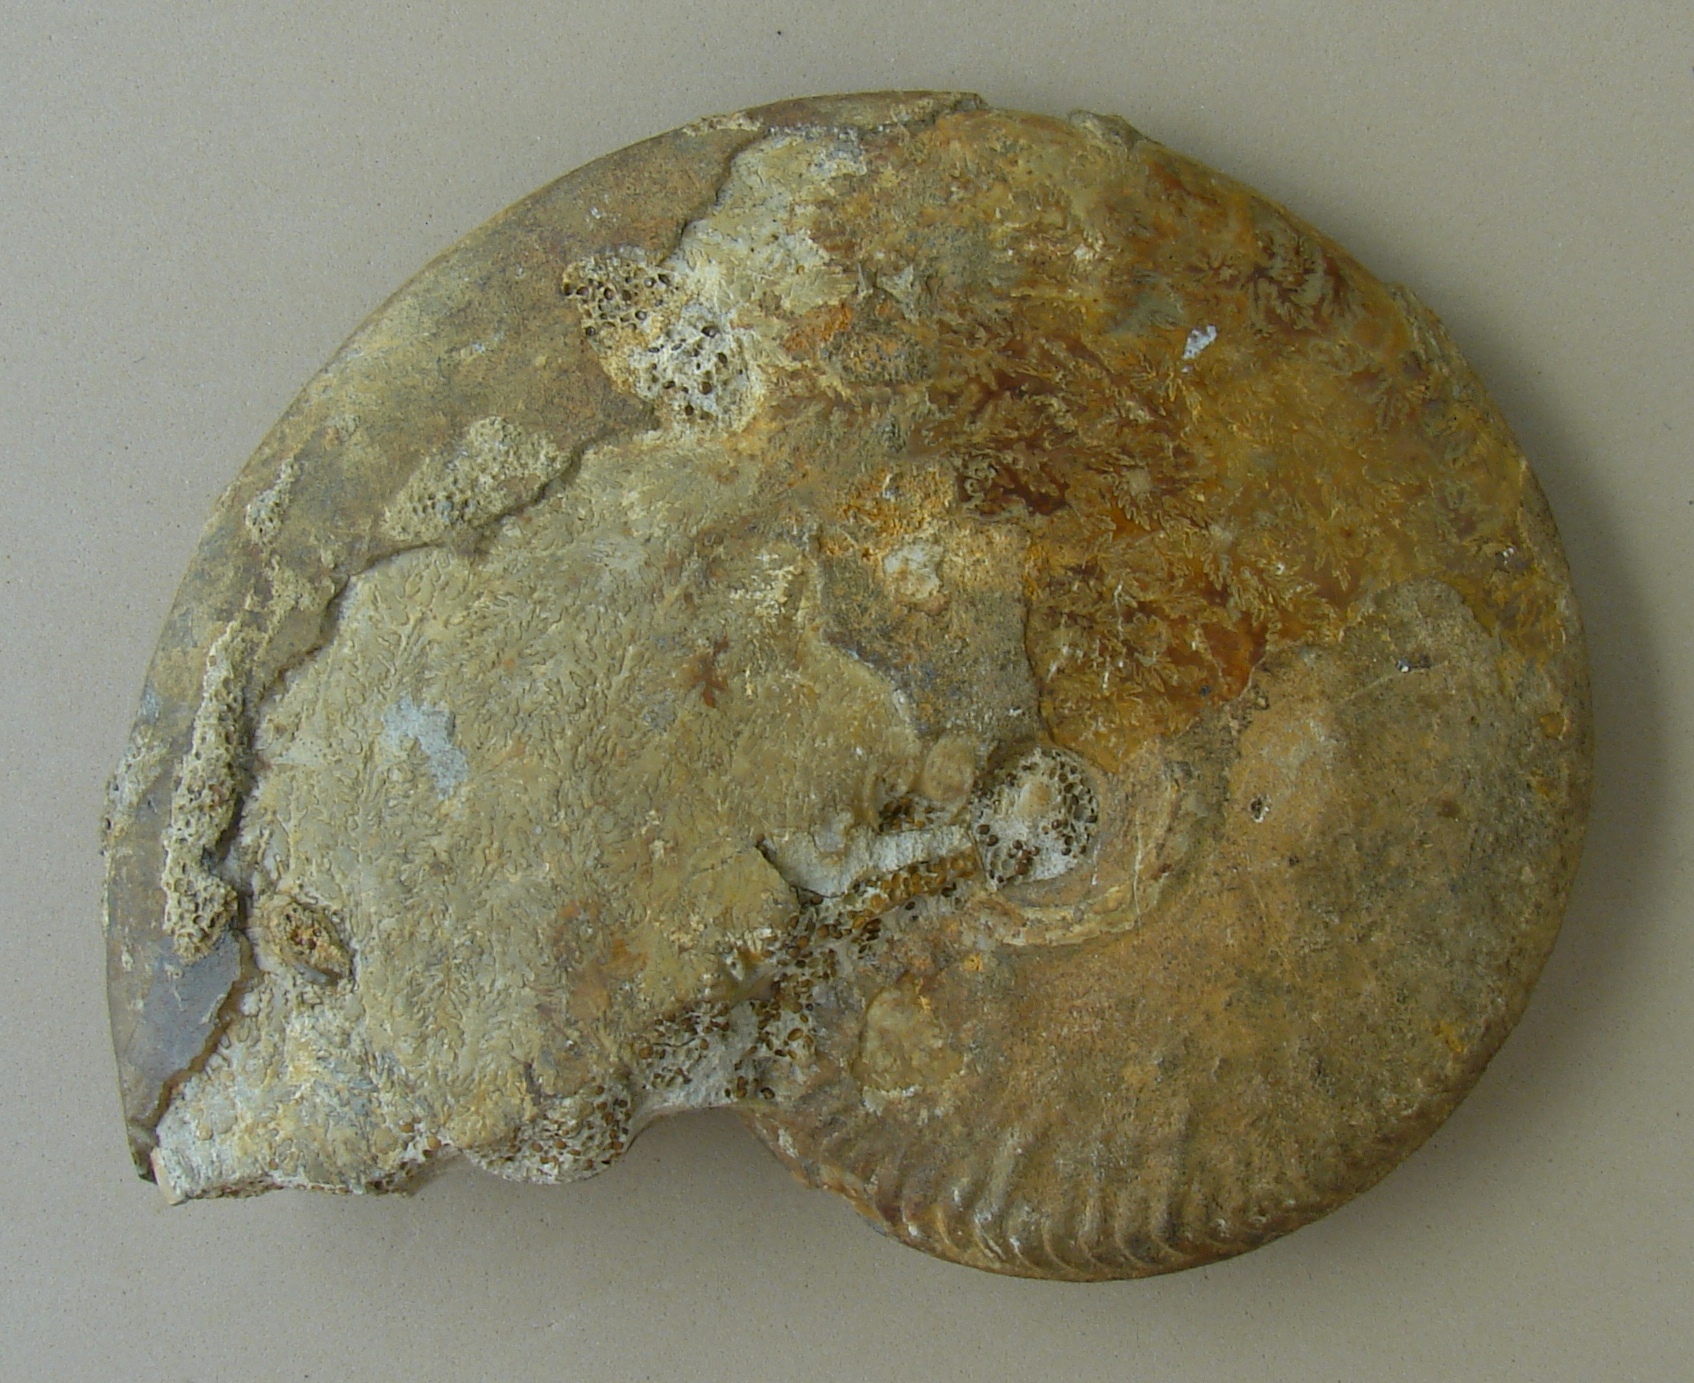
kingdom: Animalia
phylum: Mollusca
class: Cephalopoda
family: Oppeliidae
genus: Oppelia
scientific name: Oppelia subradiata
